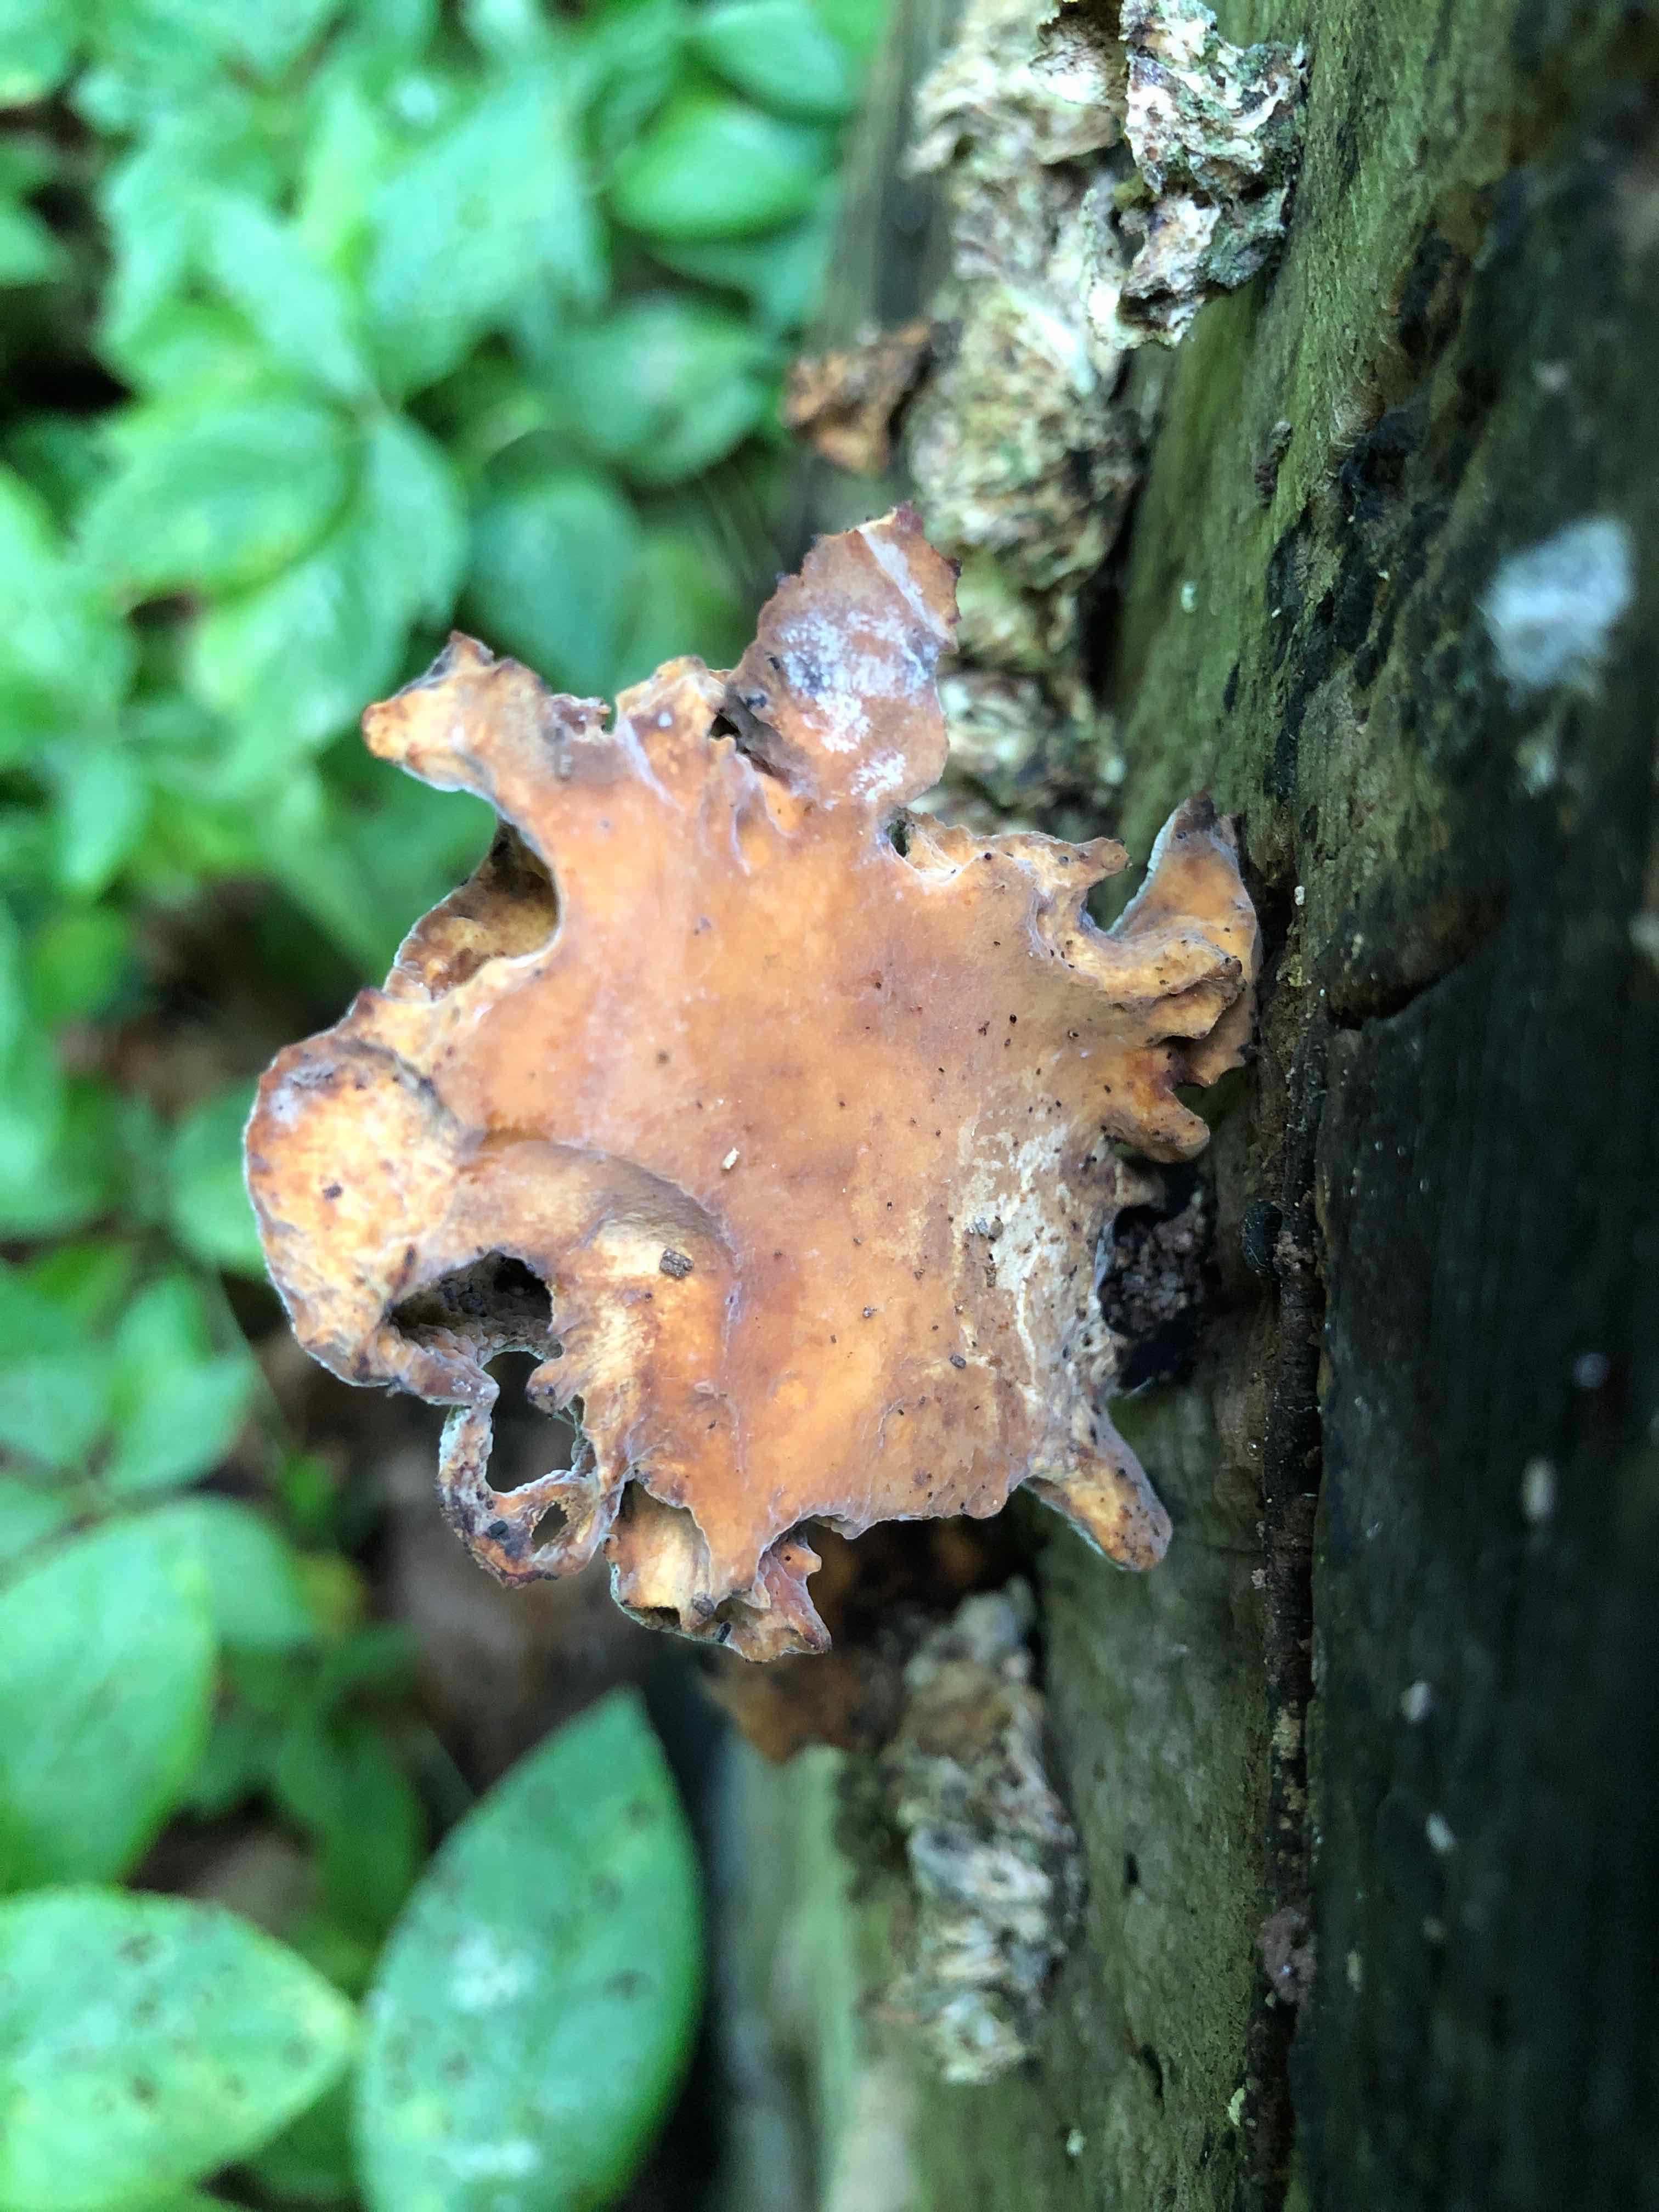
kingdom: Fungi
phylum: Basidiomycota
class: Agaricomycetes
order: Polyporales
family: Polyporaceae
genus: Cerioporus
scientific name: Cerioporus varius
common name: foranderlig stilkporesvamp
